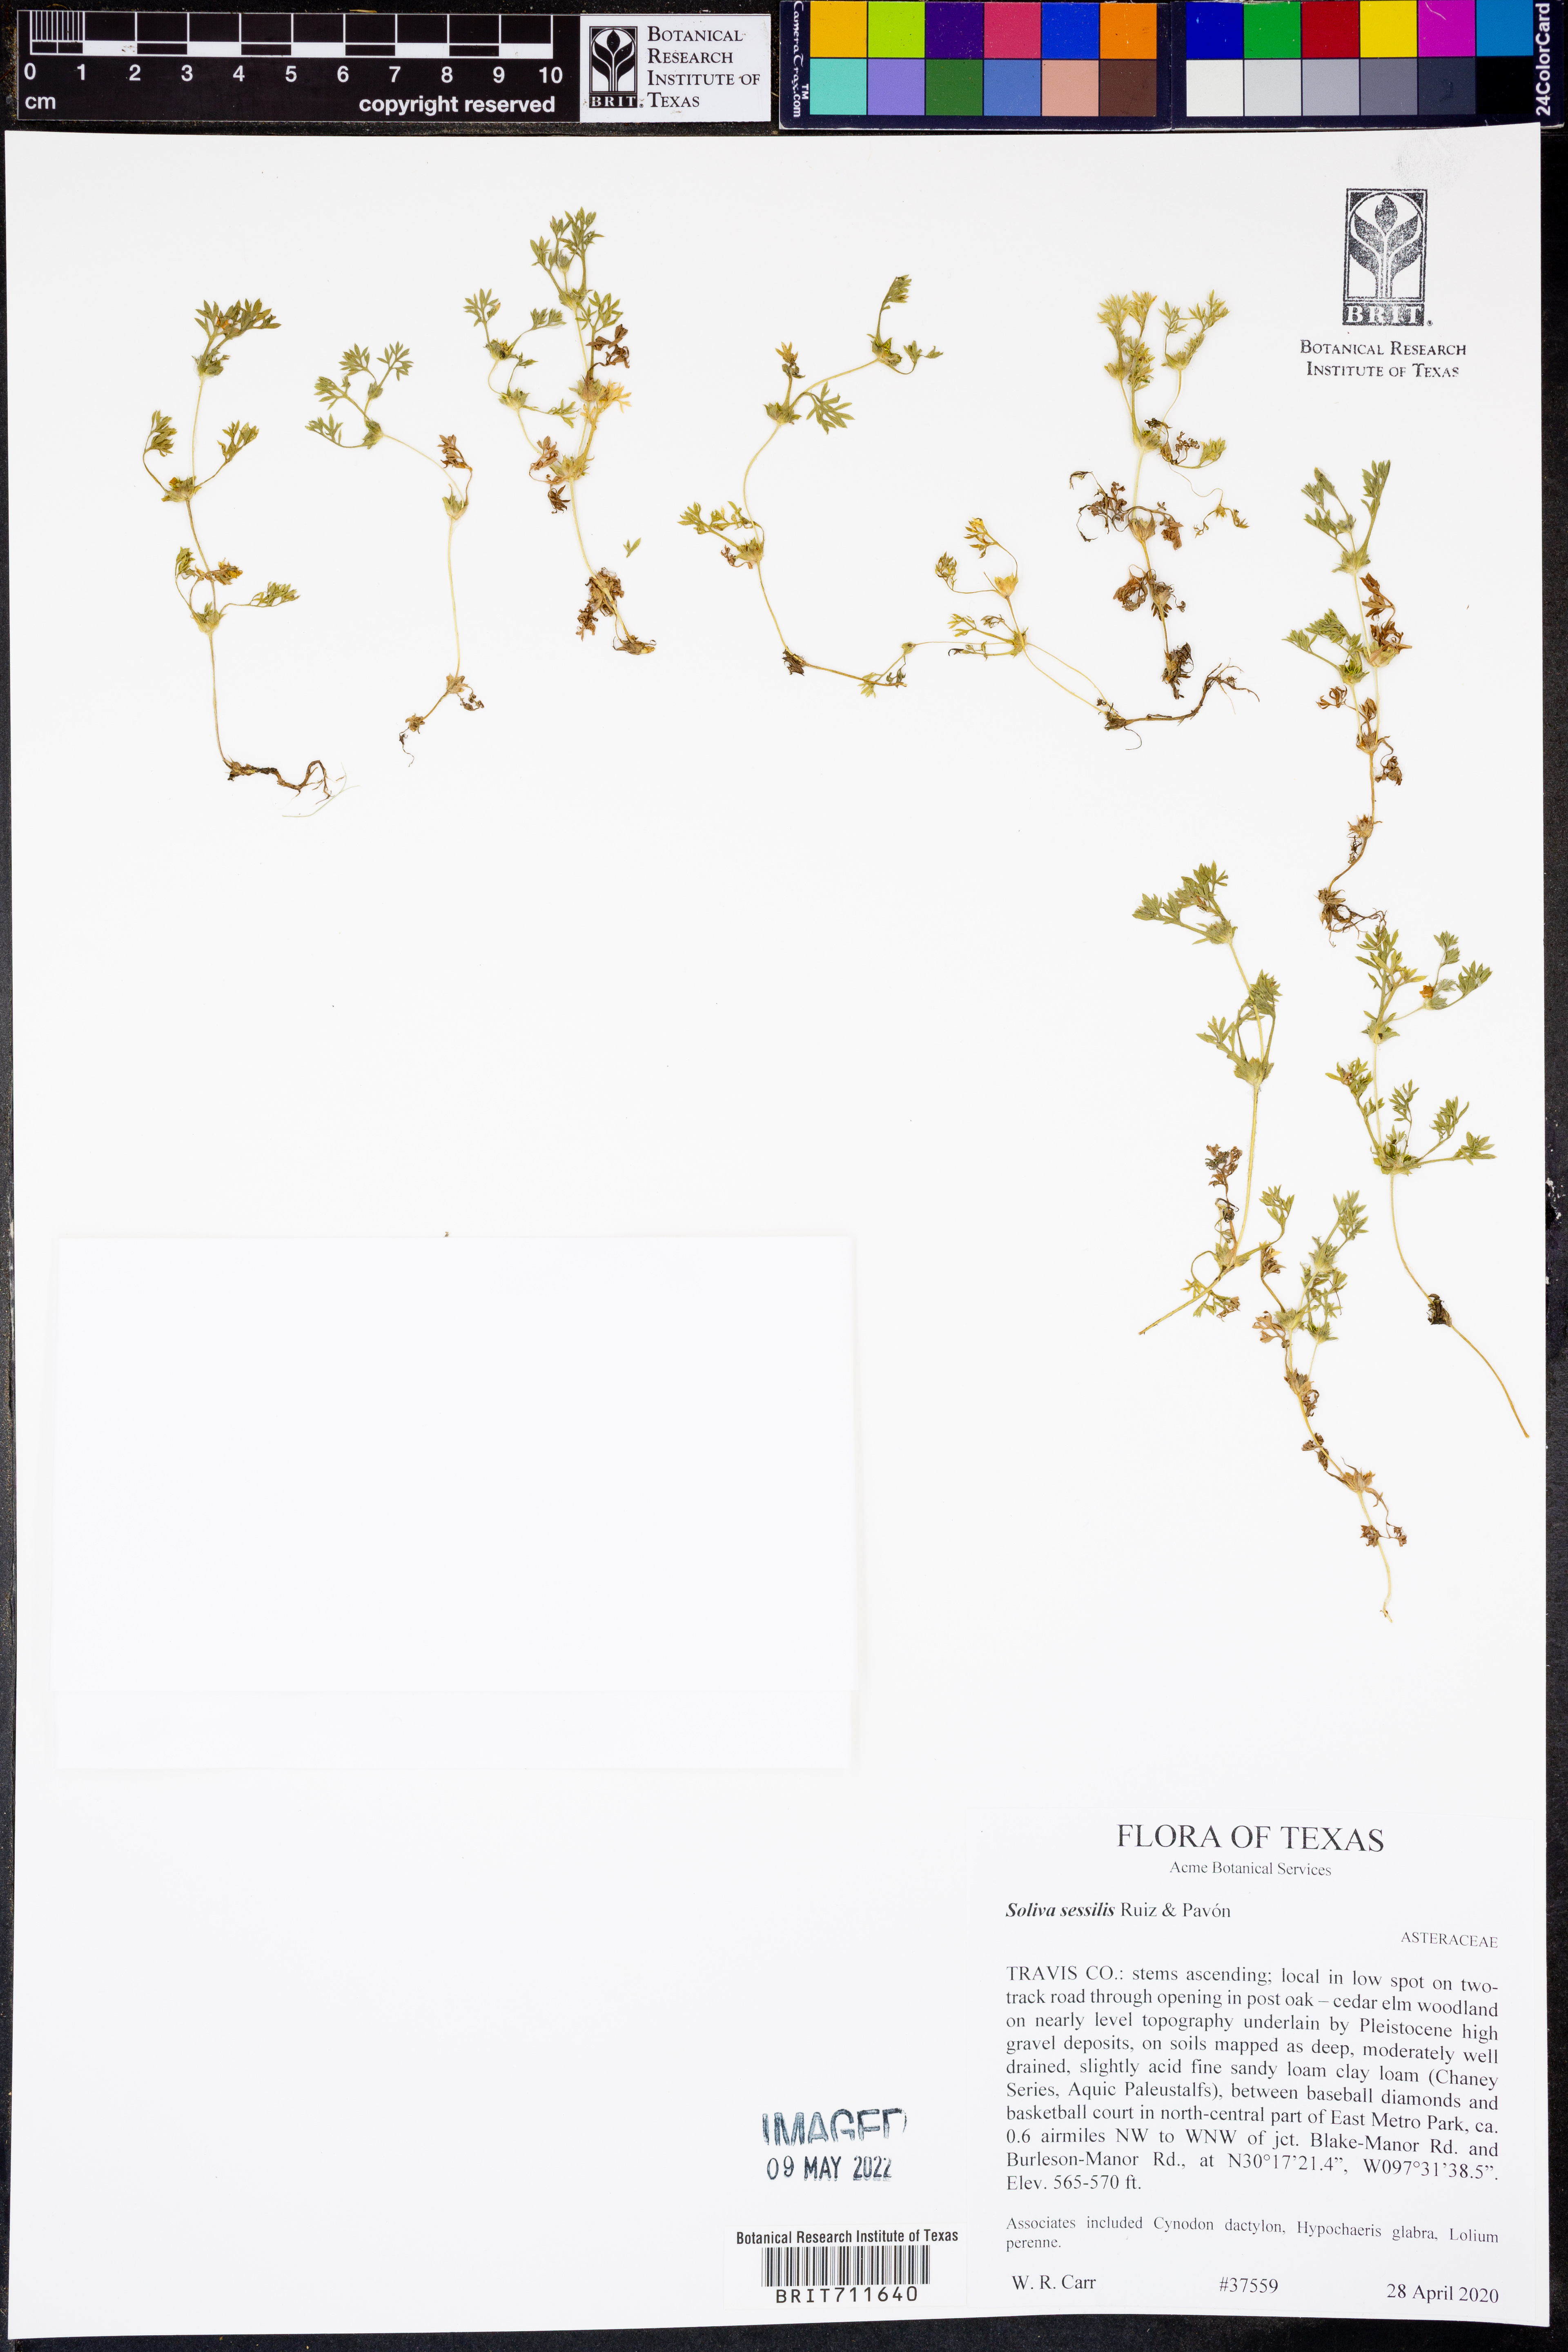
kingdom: Plantae
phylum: Tracheophyta
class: Magnoliopsida
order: Asterales
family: Asteraceae
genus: Soliva
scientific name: Soliva sessilis
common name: Field burrweed
